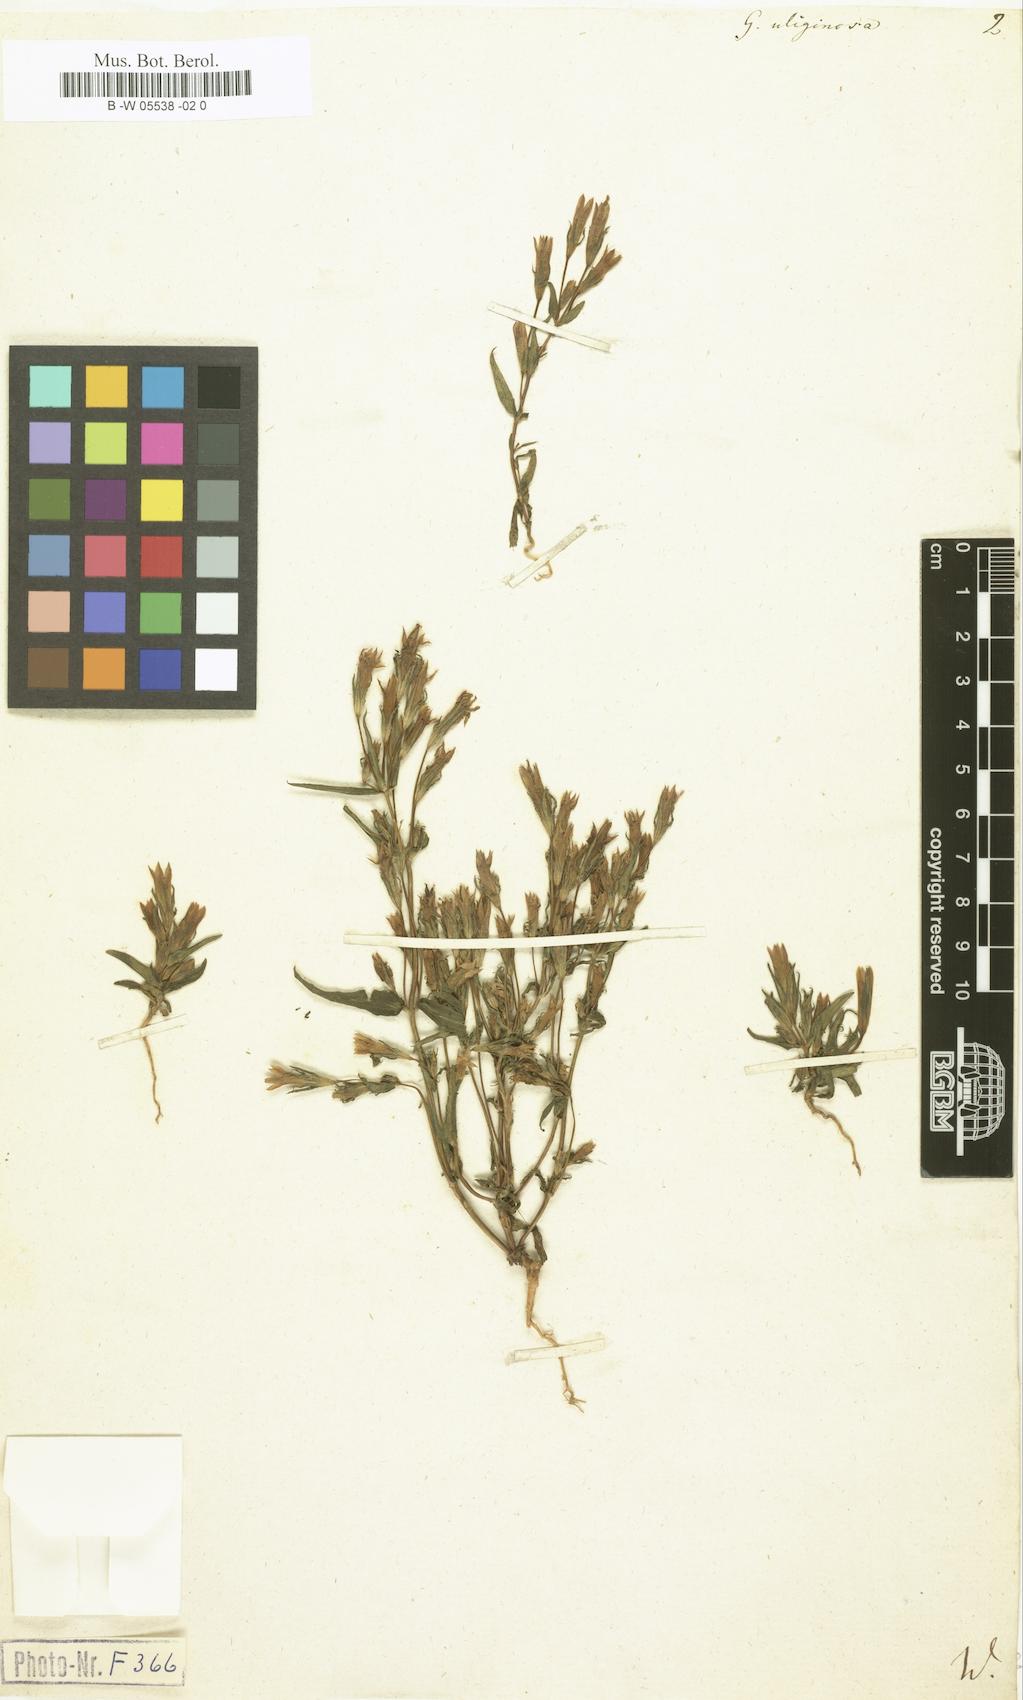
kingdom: Plantae
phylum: Tracheophyta
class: Magnoliopsida
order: Gentianales
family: Gentianaceae
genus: Gentianella
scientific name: Gentianella uliginosa
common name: Dune gentian
